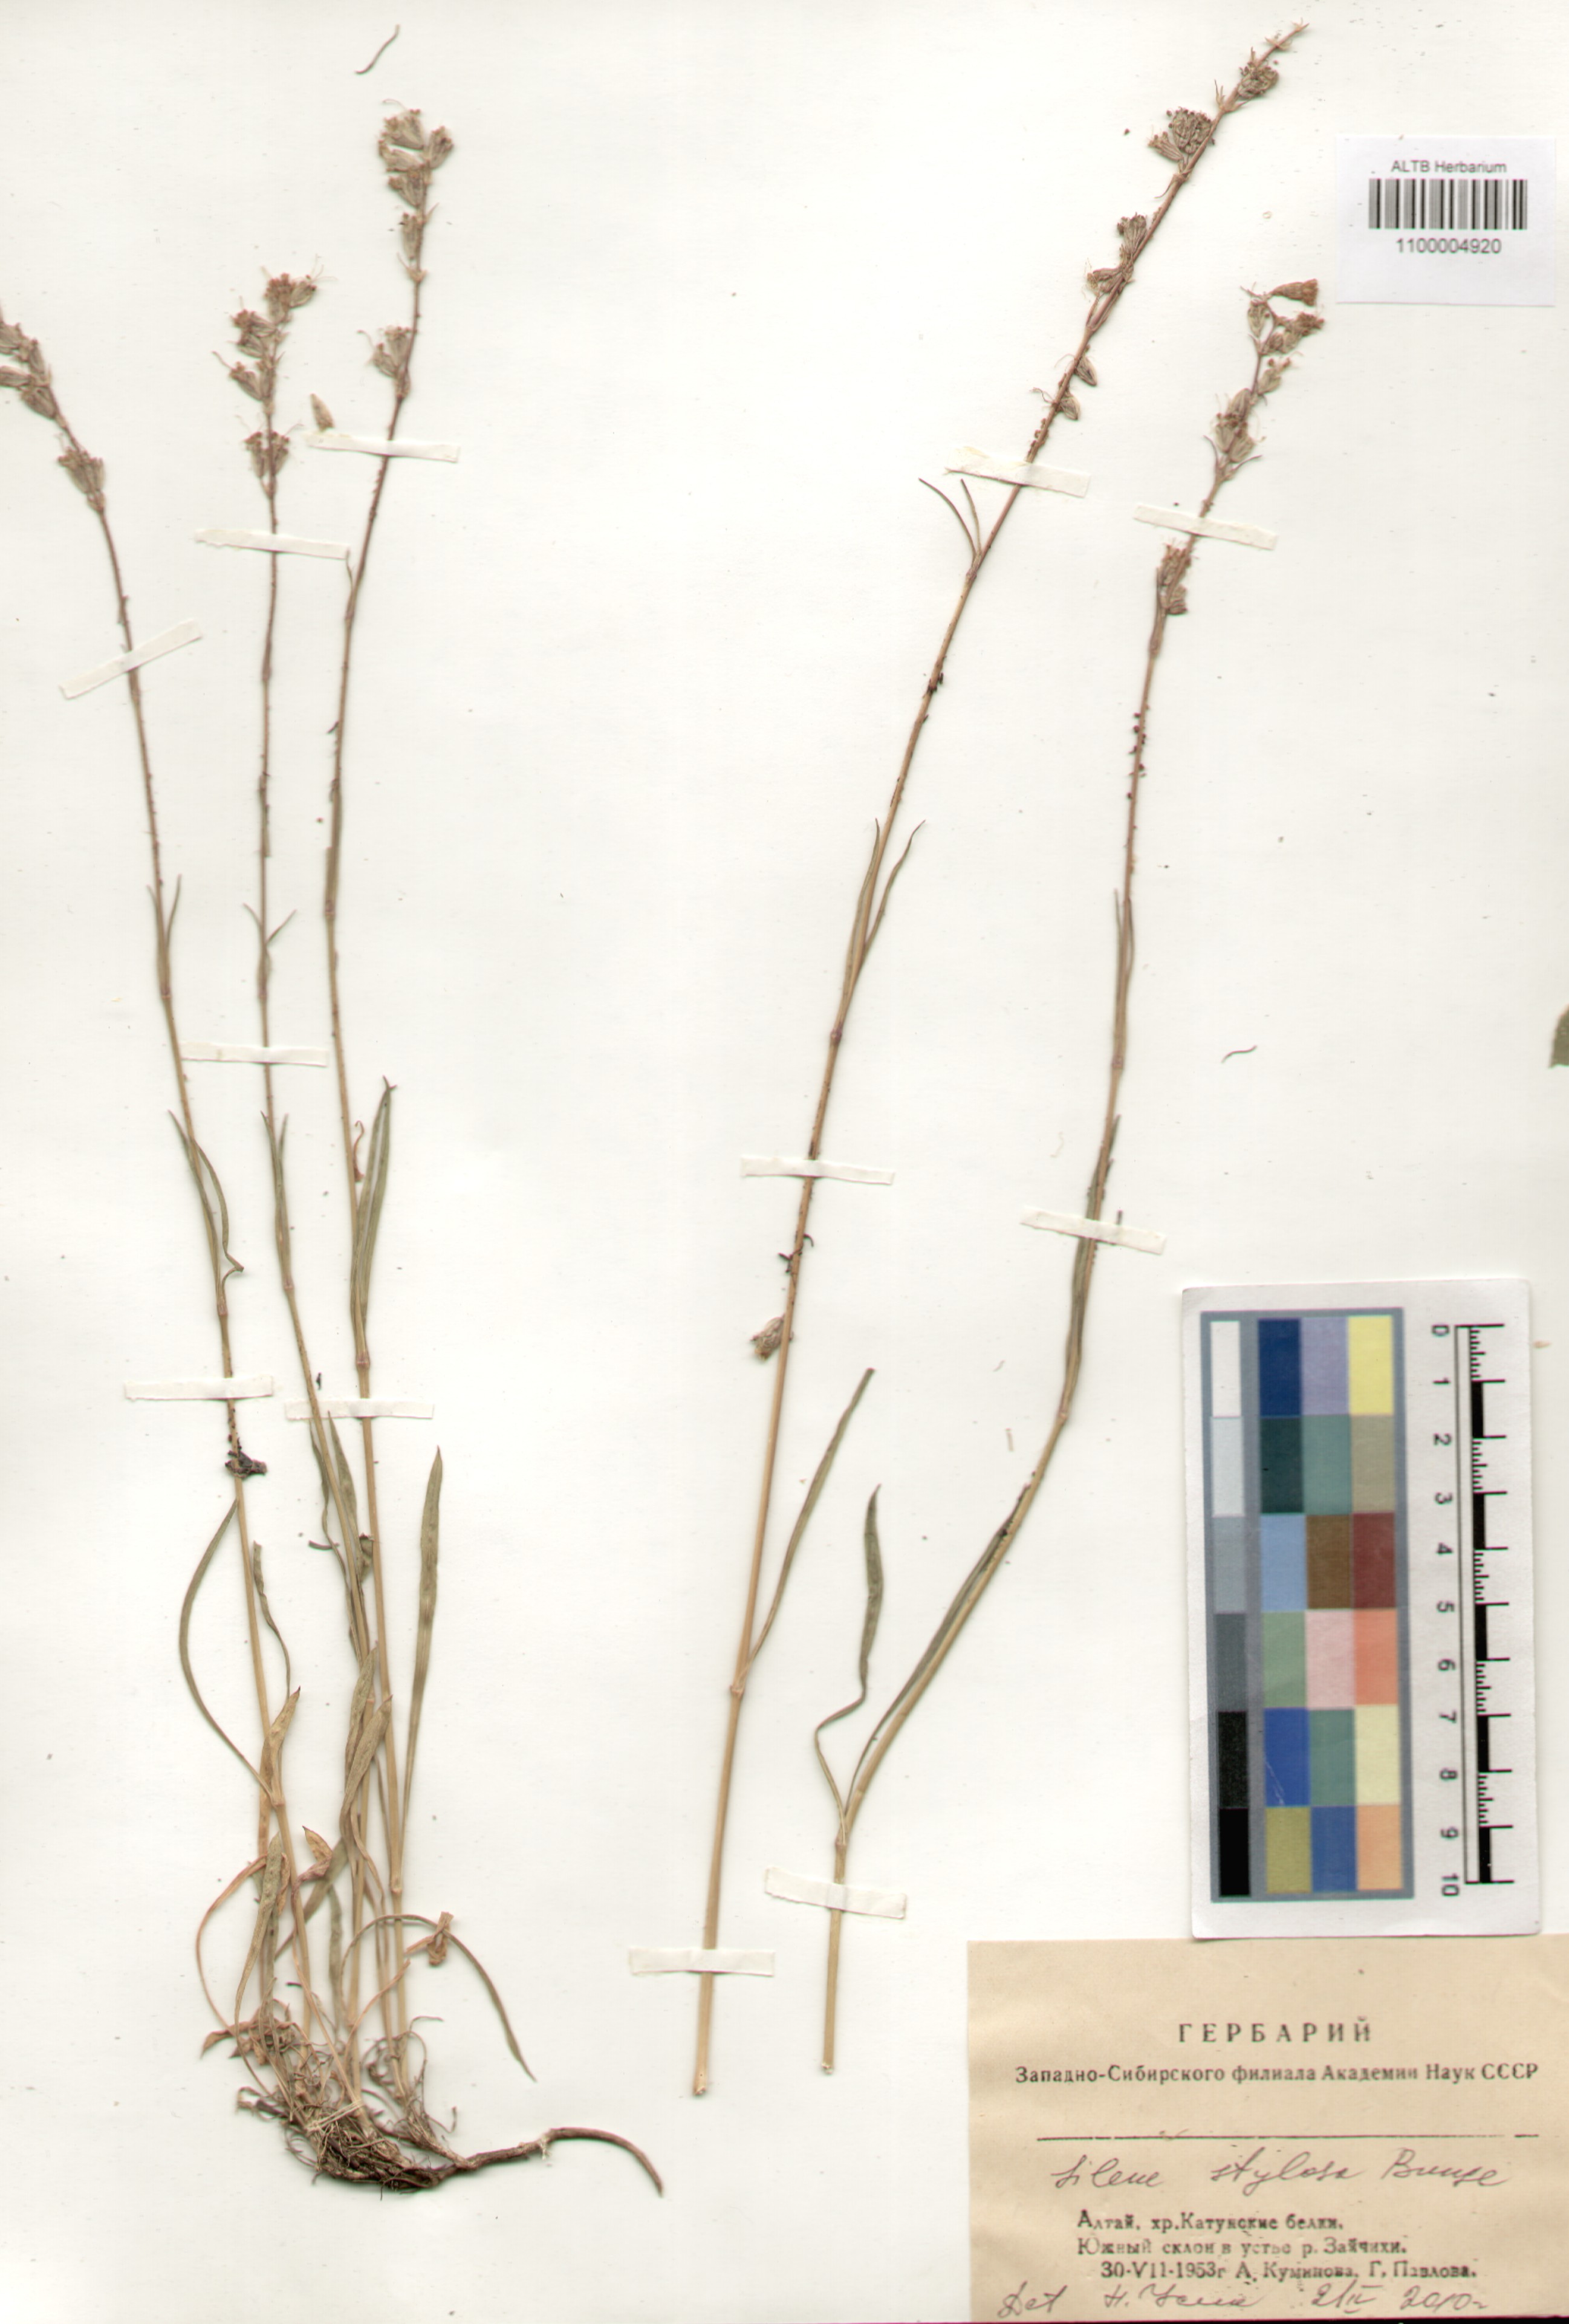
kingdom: Plantae
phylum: Tracheophyta
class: Magnoliopsida
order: Caryophyllales
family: Caryophyllaceae
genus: Silene
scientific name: Silene graminifolia
